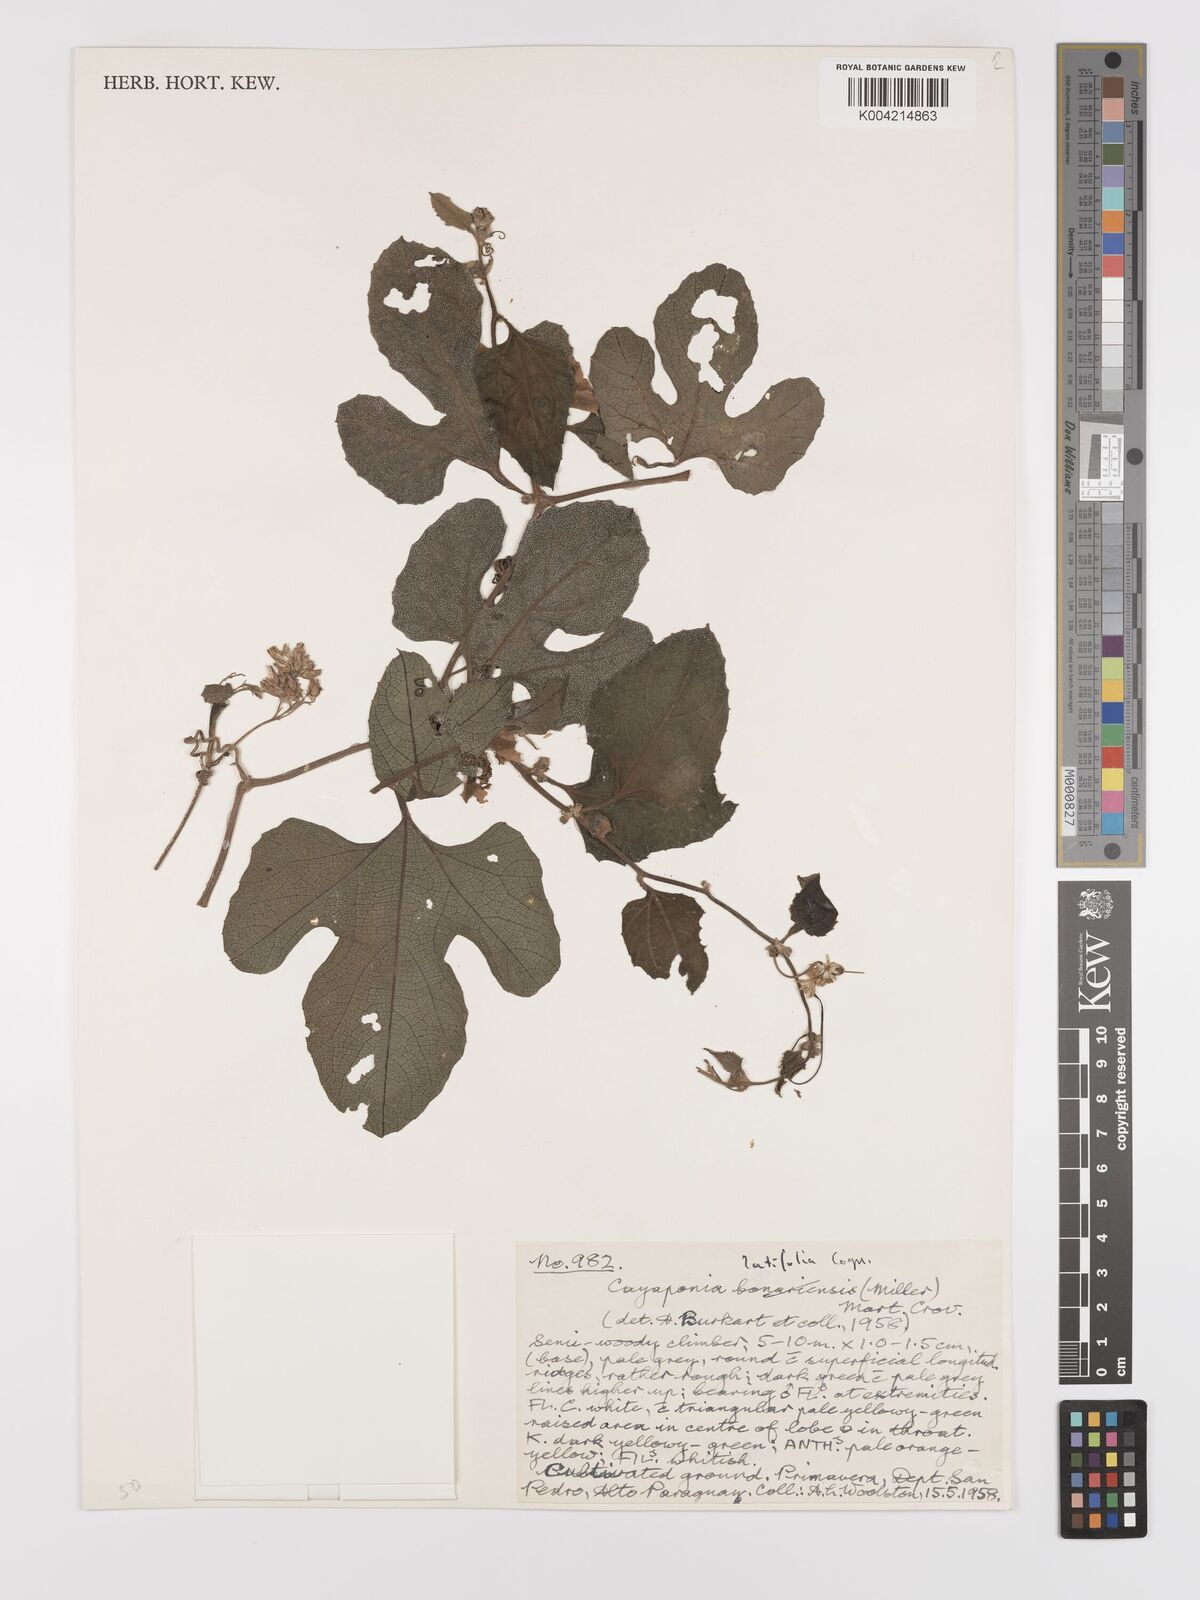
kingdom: Plantae
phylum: Tracheophyta
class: Magnoliopsida
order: Cucurbitales
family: Cucurbitaceae
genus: Cayaponia
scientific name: Cayaponia citrullifolia
